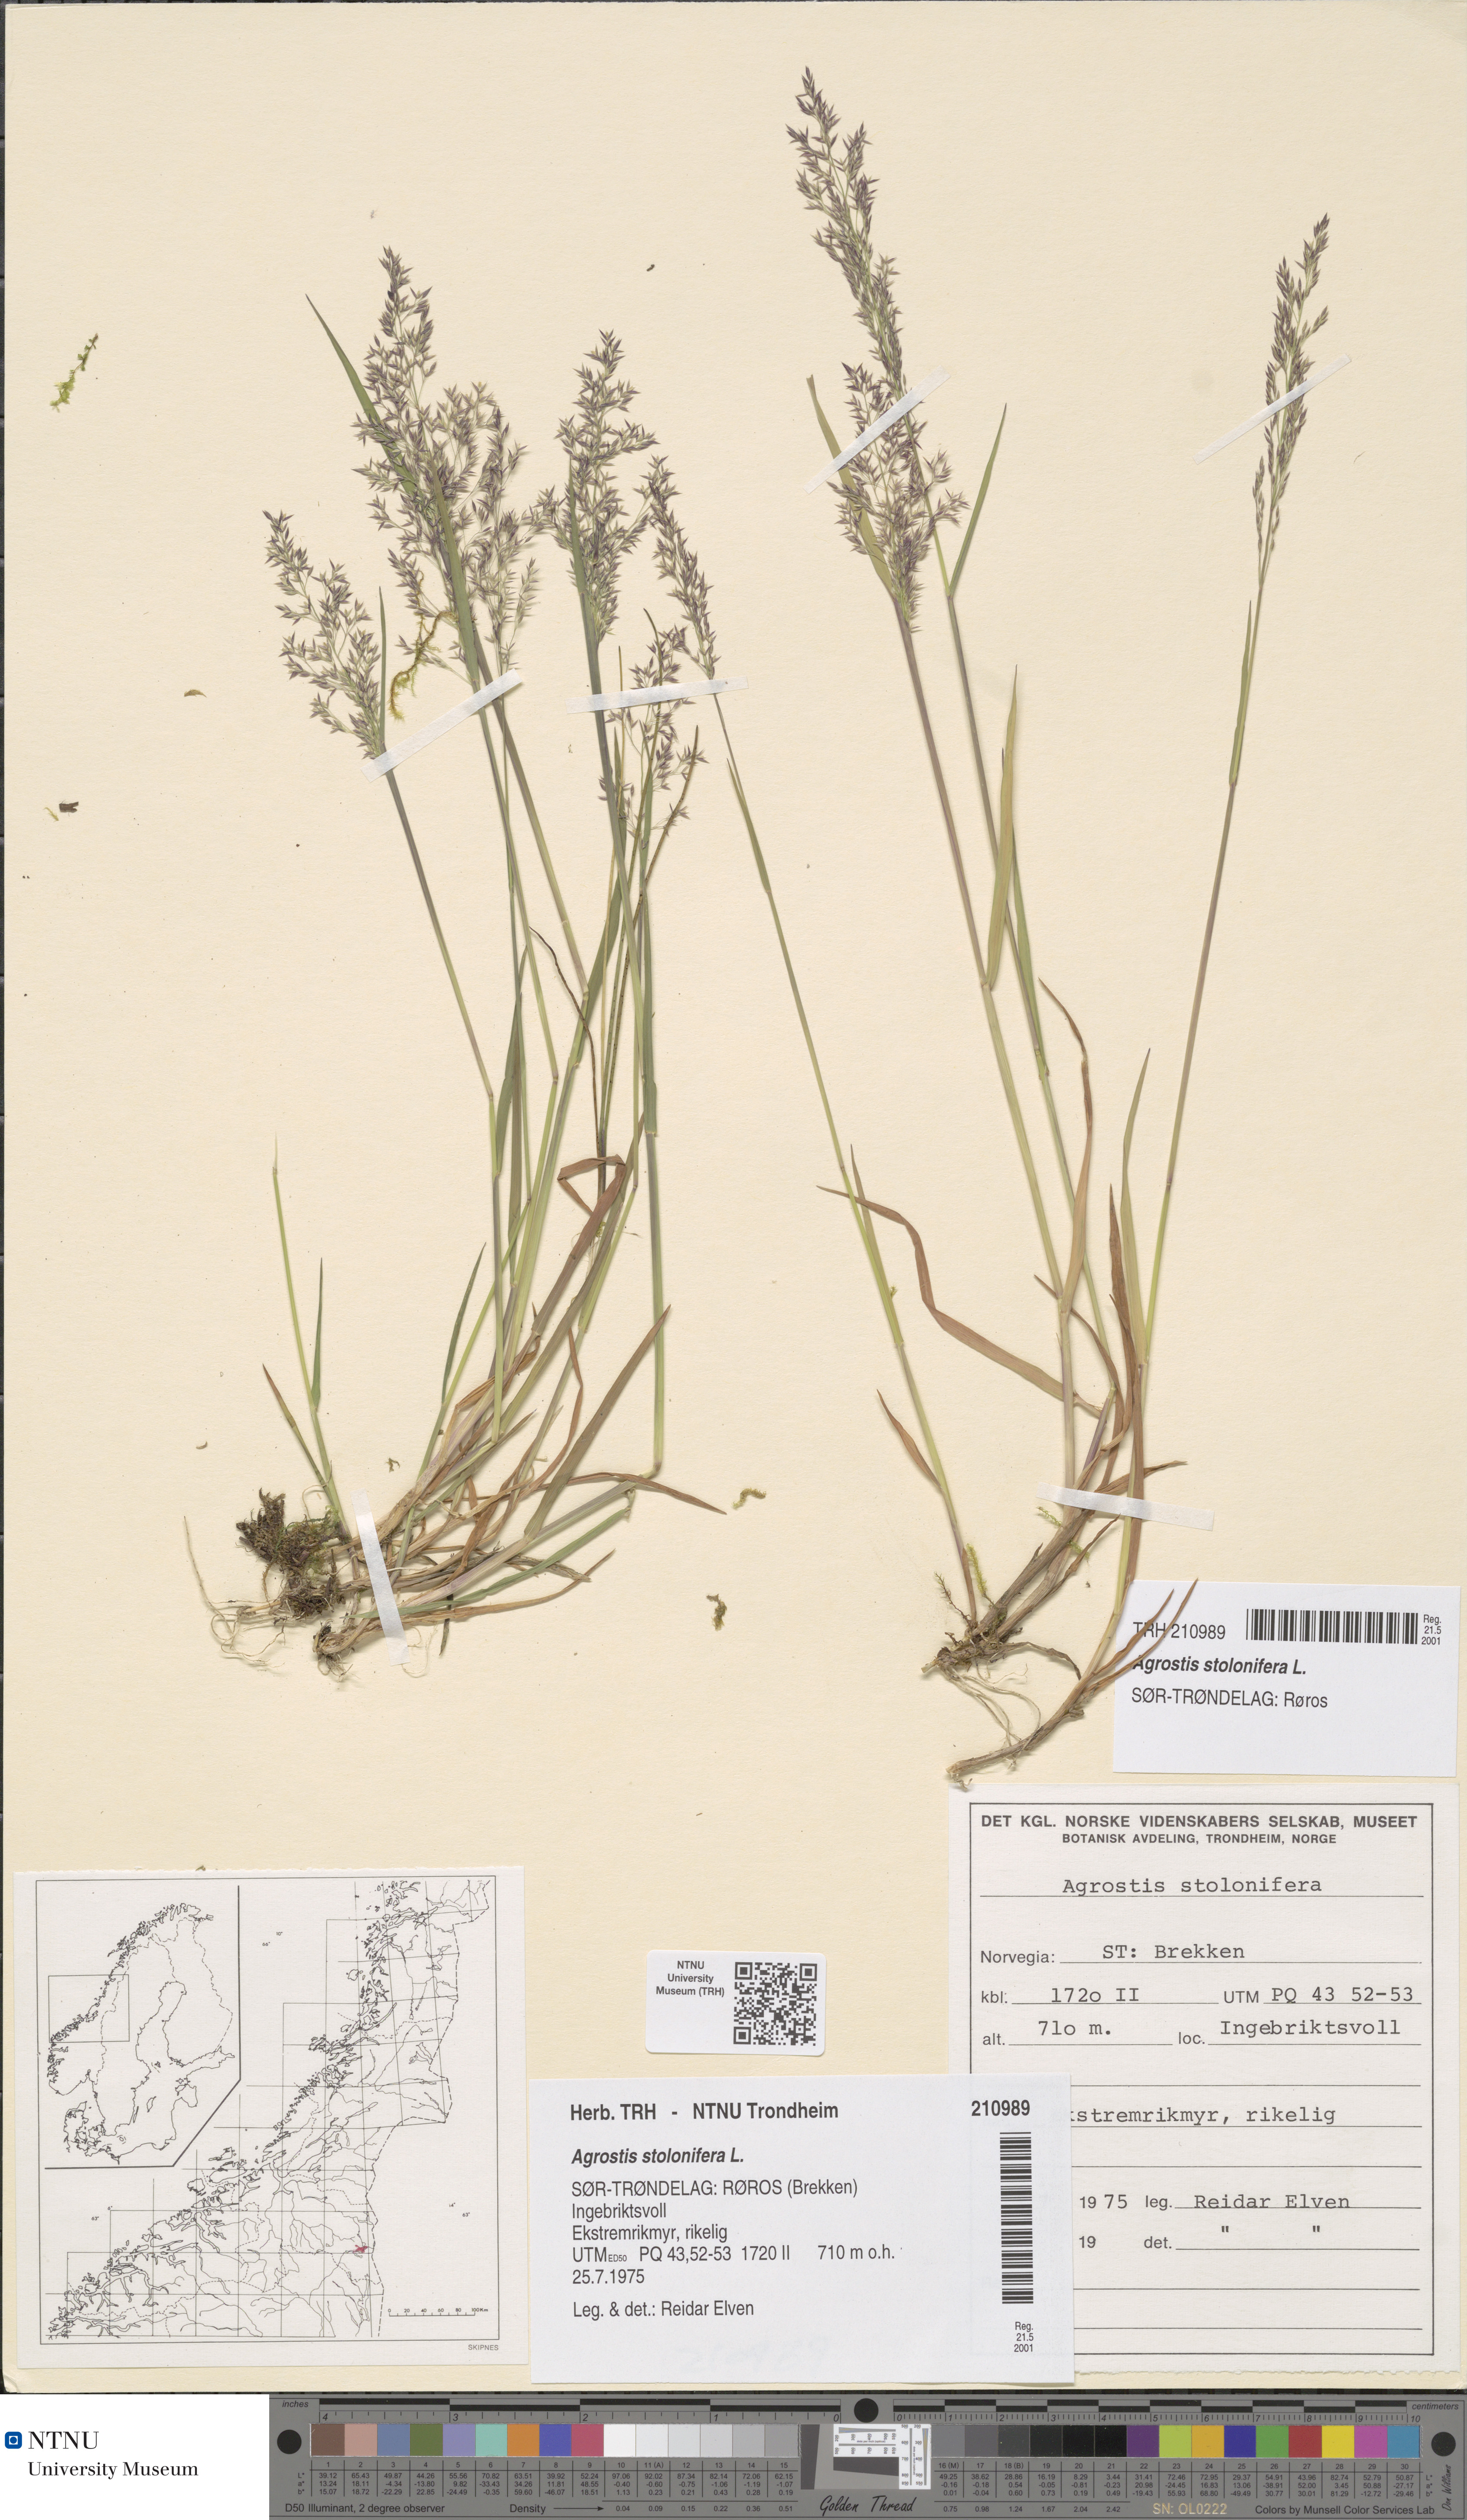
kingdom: Plantae
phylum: Tracheophyta
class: Liliopsida
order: Poales
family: Poaceae
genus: Agrostis
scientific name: Agrostis stolonifera
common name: Creeping bentgrass
